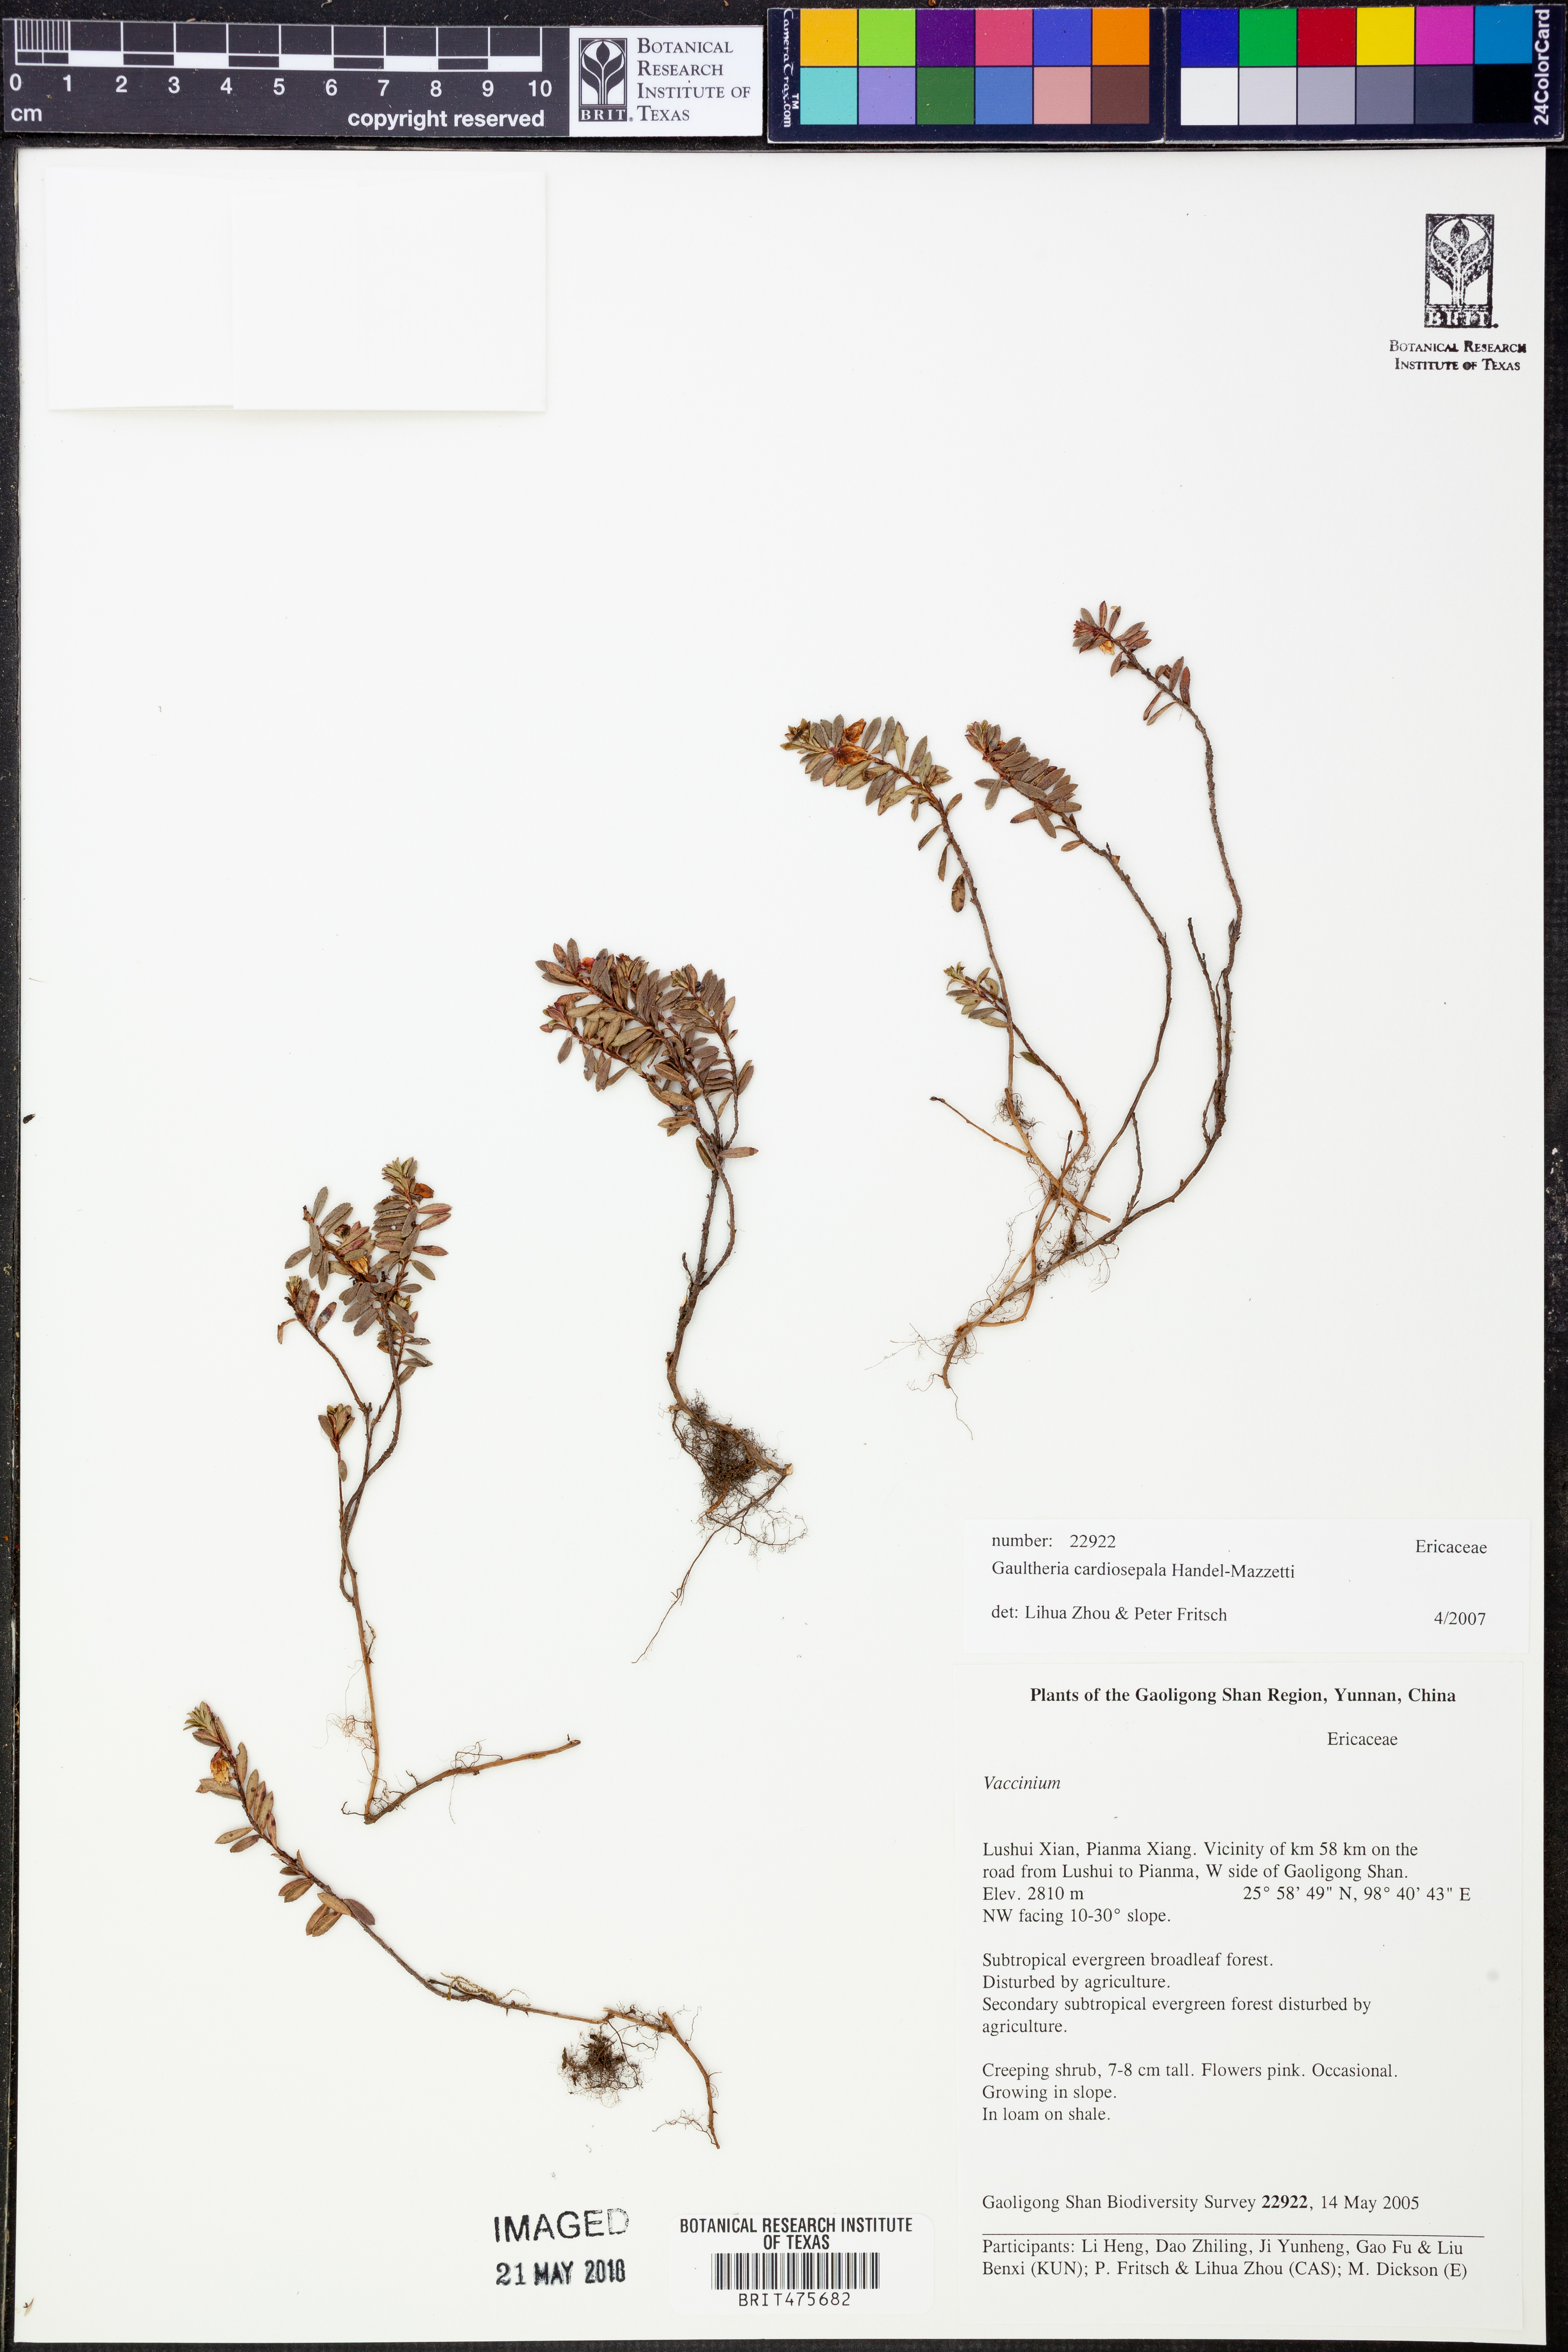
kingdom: Plantae
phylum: Tracheophyta
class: Magnoliopsida
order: Ericales
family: Ericaceae
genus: Gaultheria
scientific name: Gaultheria cardiosepala
